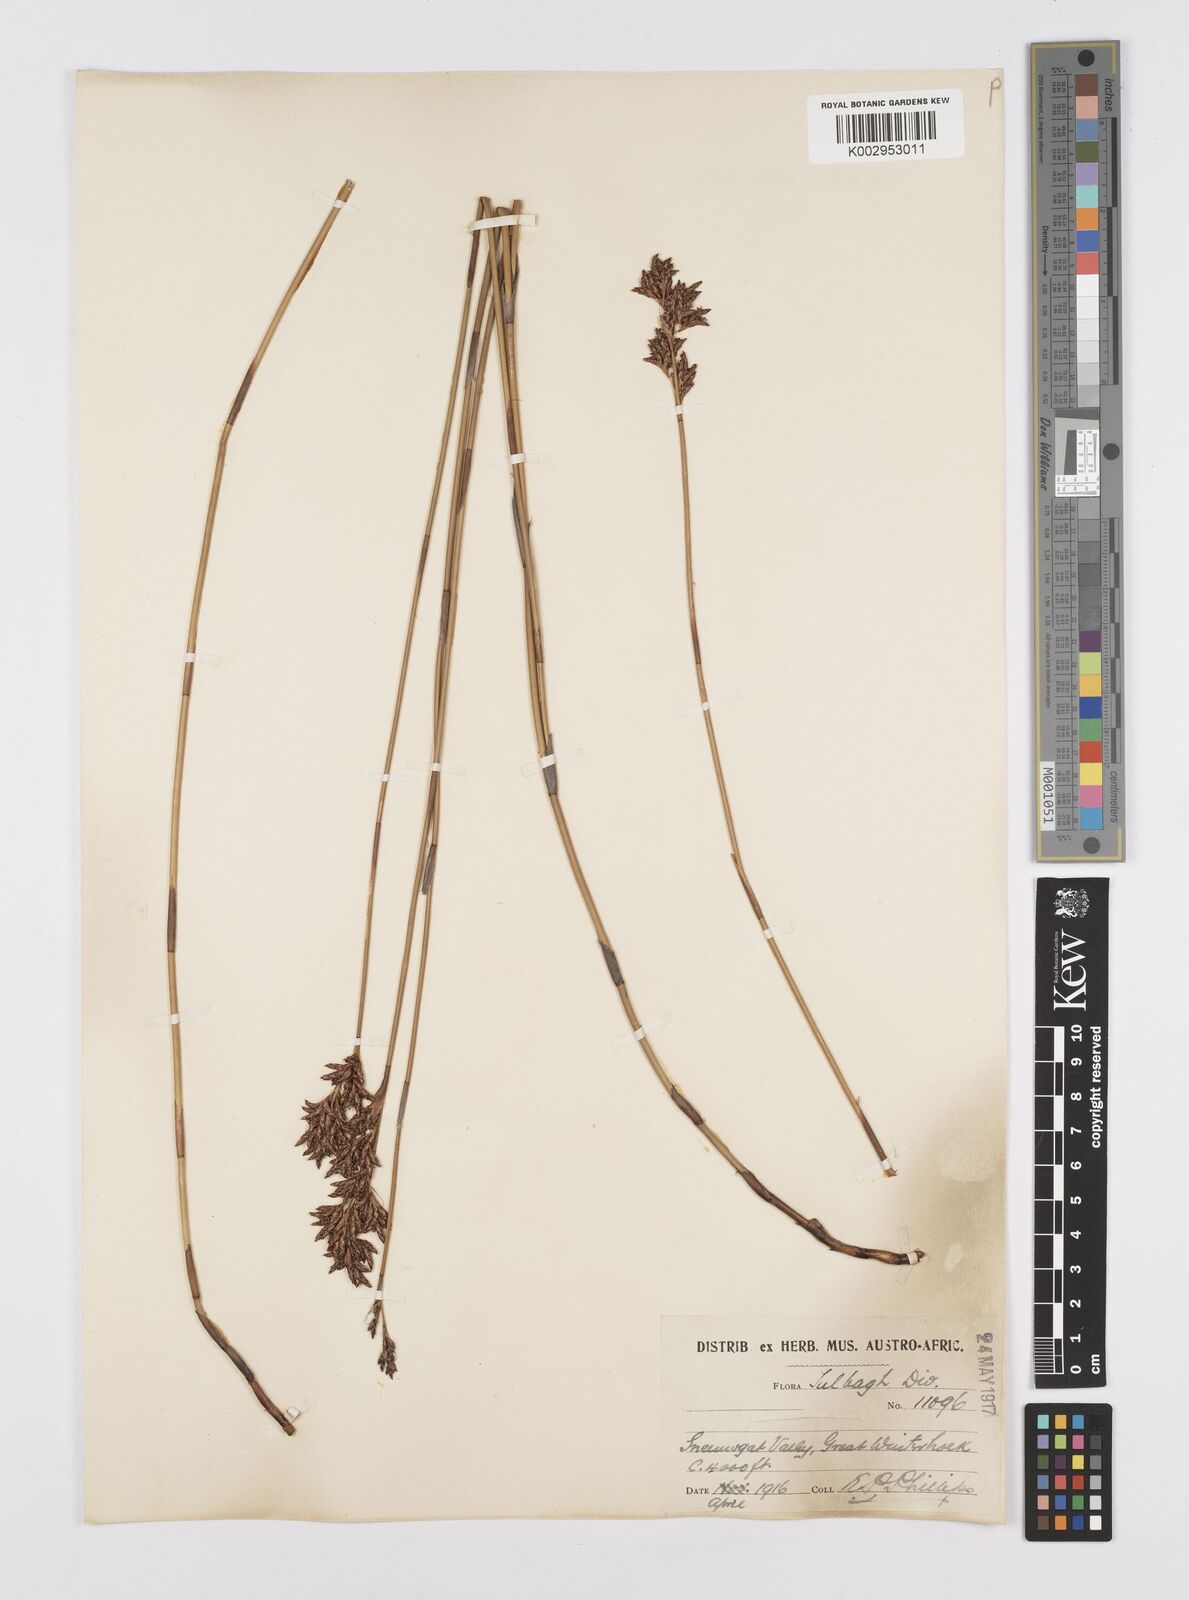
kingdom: Plantae
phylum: Tracheophyta
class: Liliopsida
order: Poales
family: Restionaceae
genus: Restio
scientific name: Restio sieberi
